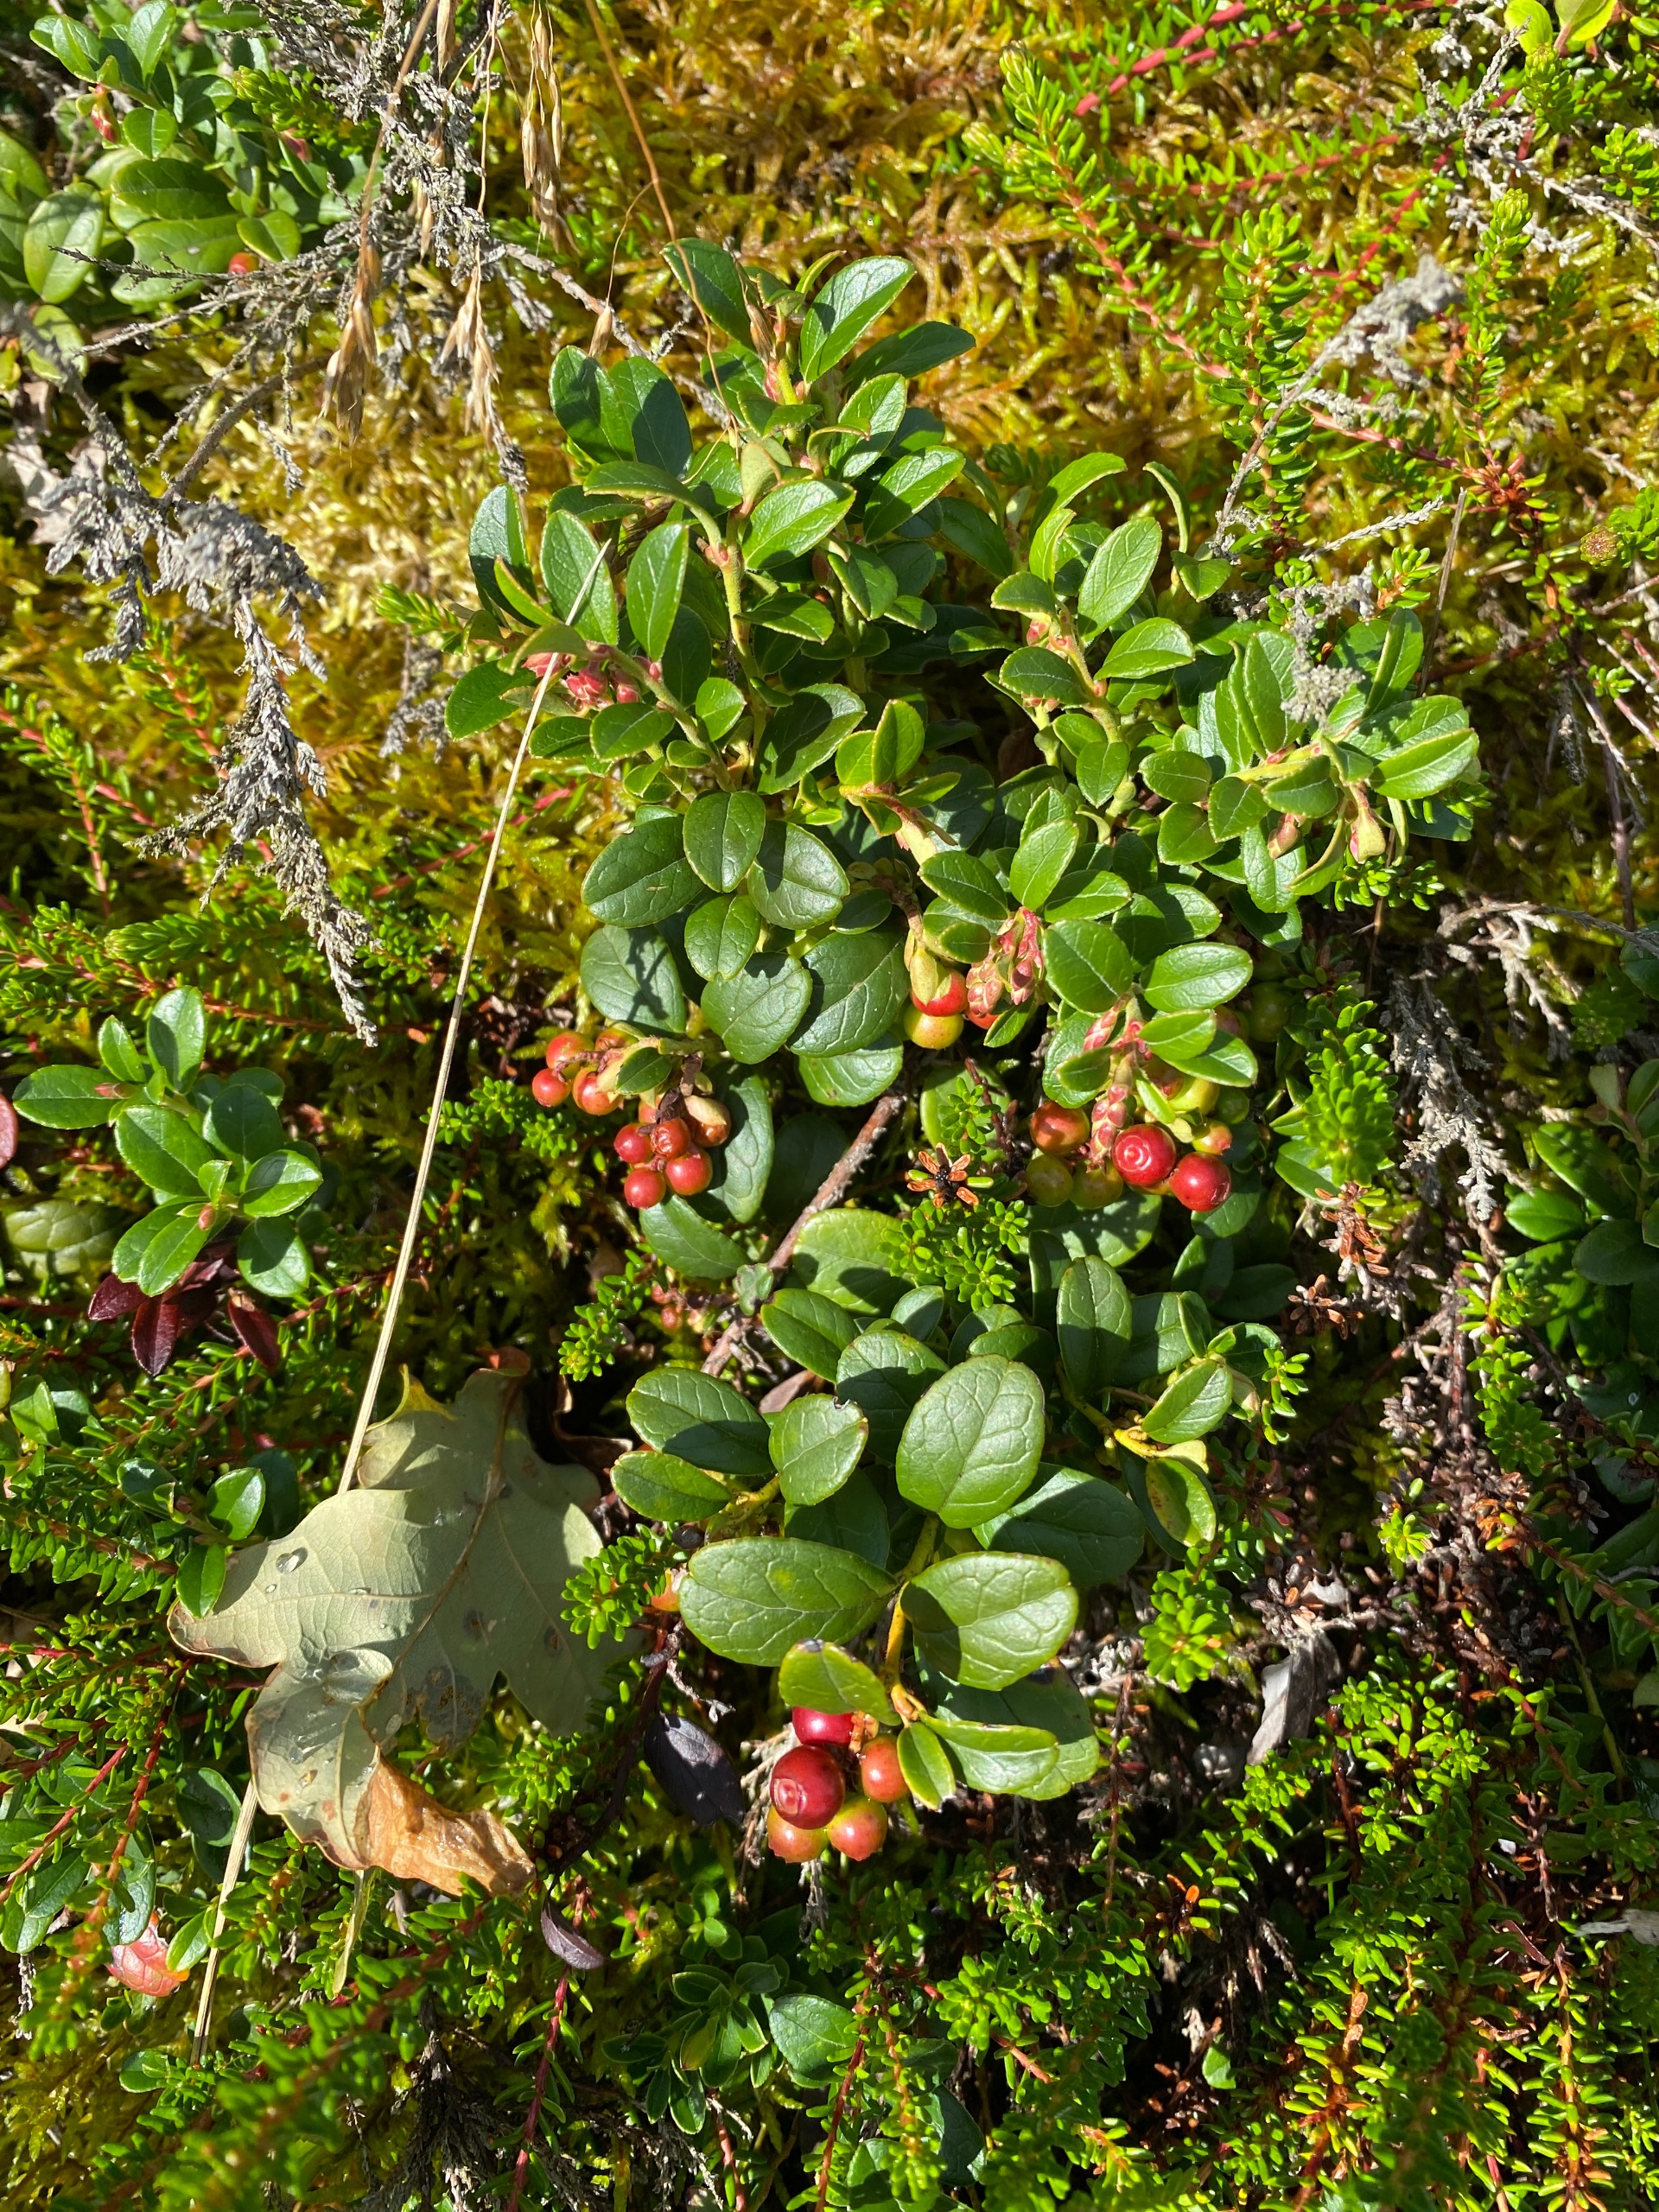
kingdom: Plantae
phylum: Tracheophyta
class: Magnoliopsida
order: Ericales
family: Ericaceae
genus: Vaccinium
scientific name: Vaccinium vitis-idaea
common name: Tyttebær
